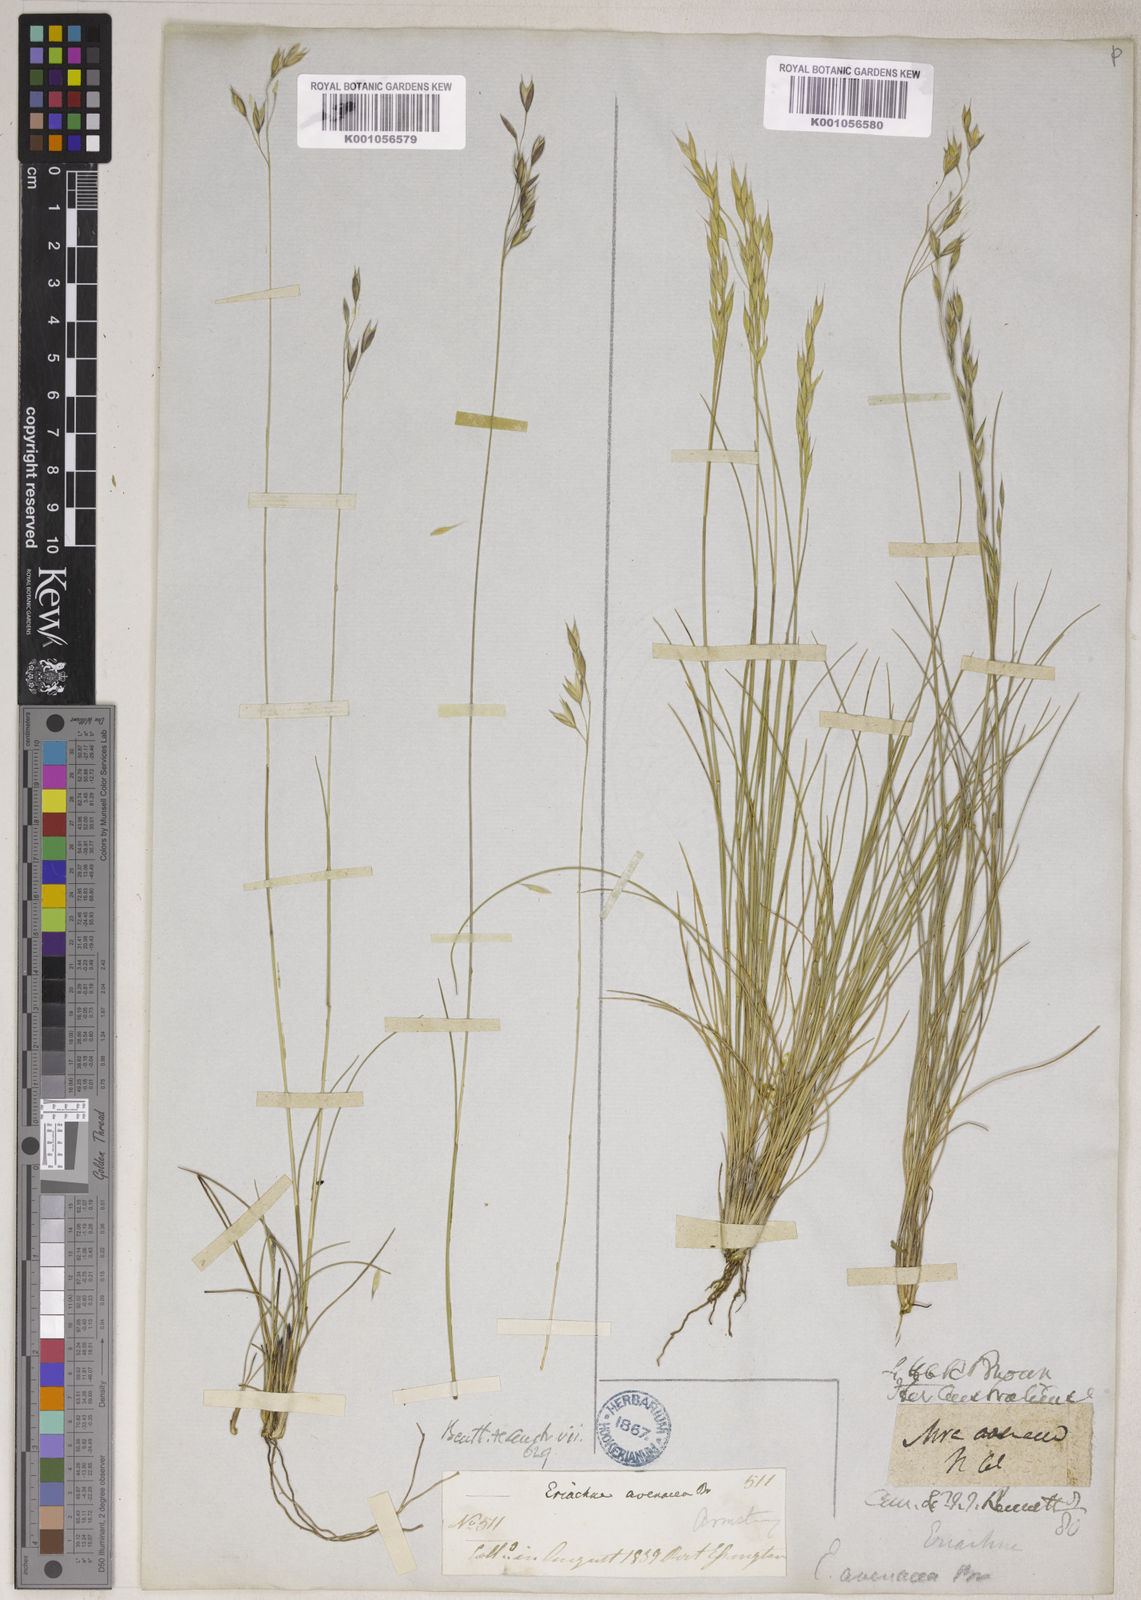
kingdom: Plantae
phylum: Tracheophyta
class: Liliopsida
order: Poales
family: Poaceae
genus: Eriachne
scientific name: Eriachne avenacea
